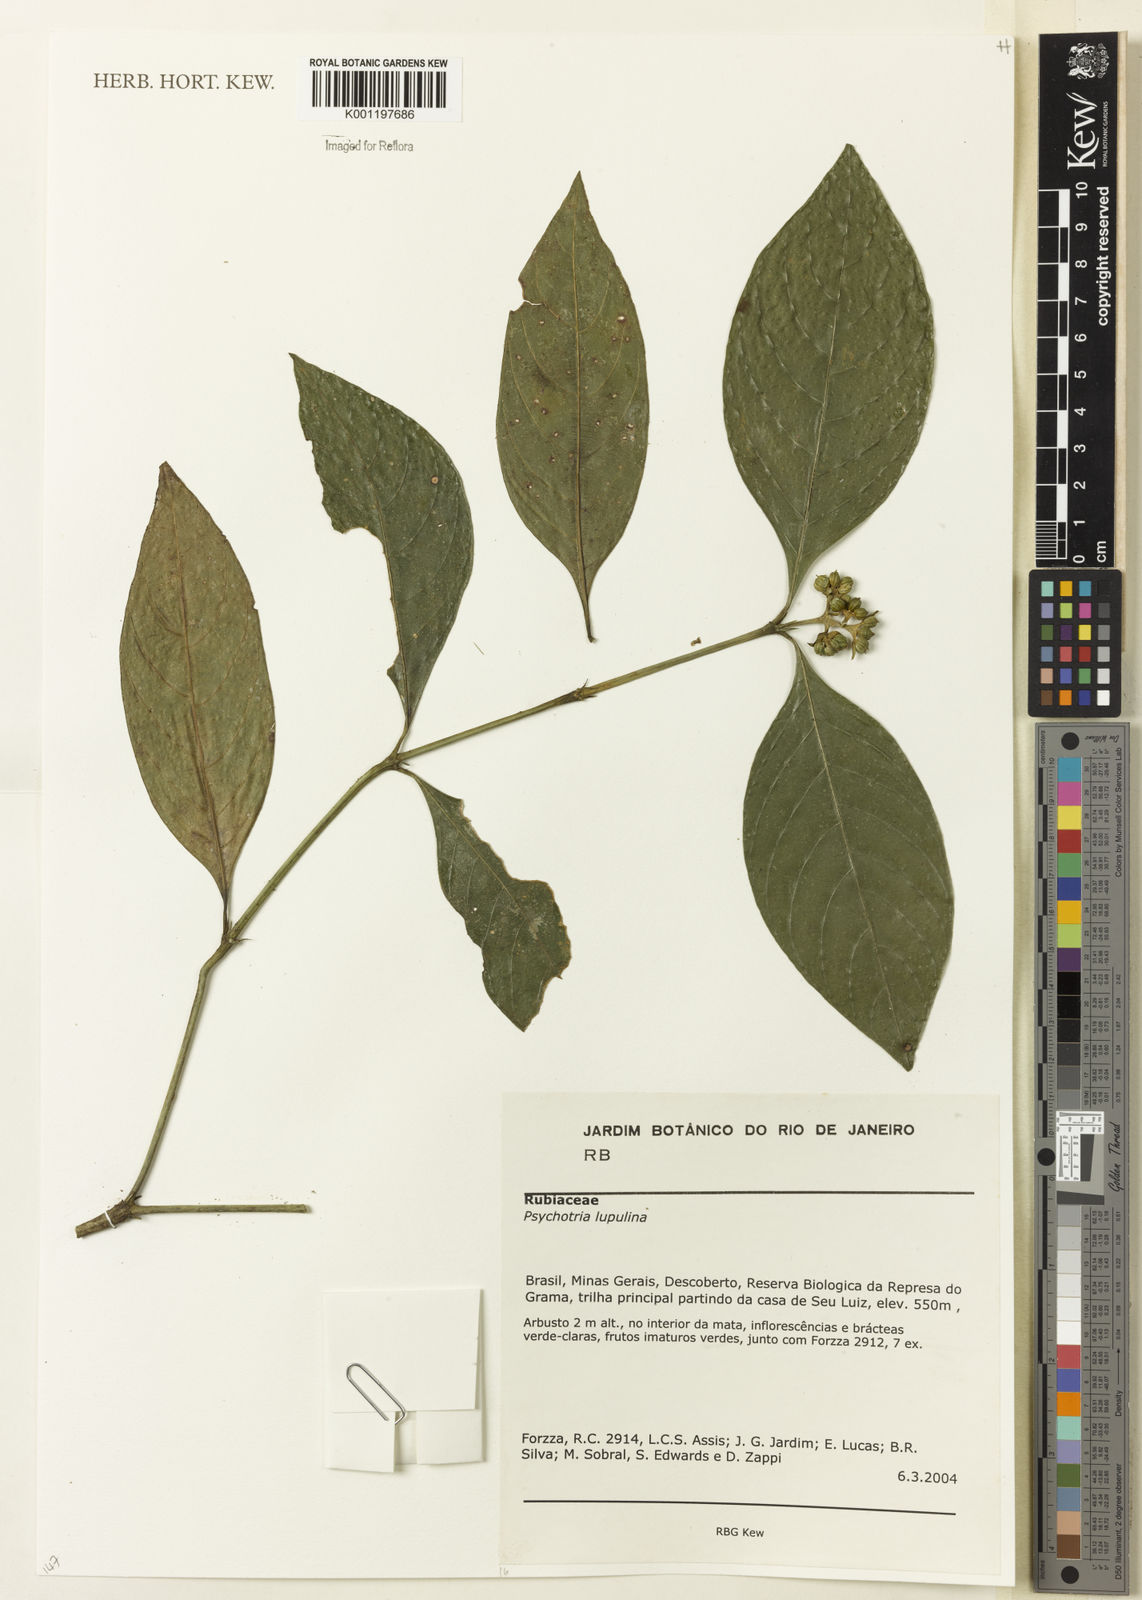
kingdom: Plantae
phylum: Tracheophyta
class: Magnoliopsida
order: Gentianales
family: Rubiaceae
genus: Palicourea
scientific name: Palicourea justiciifolia
